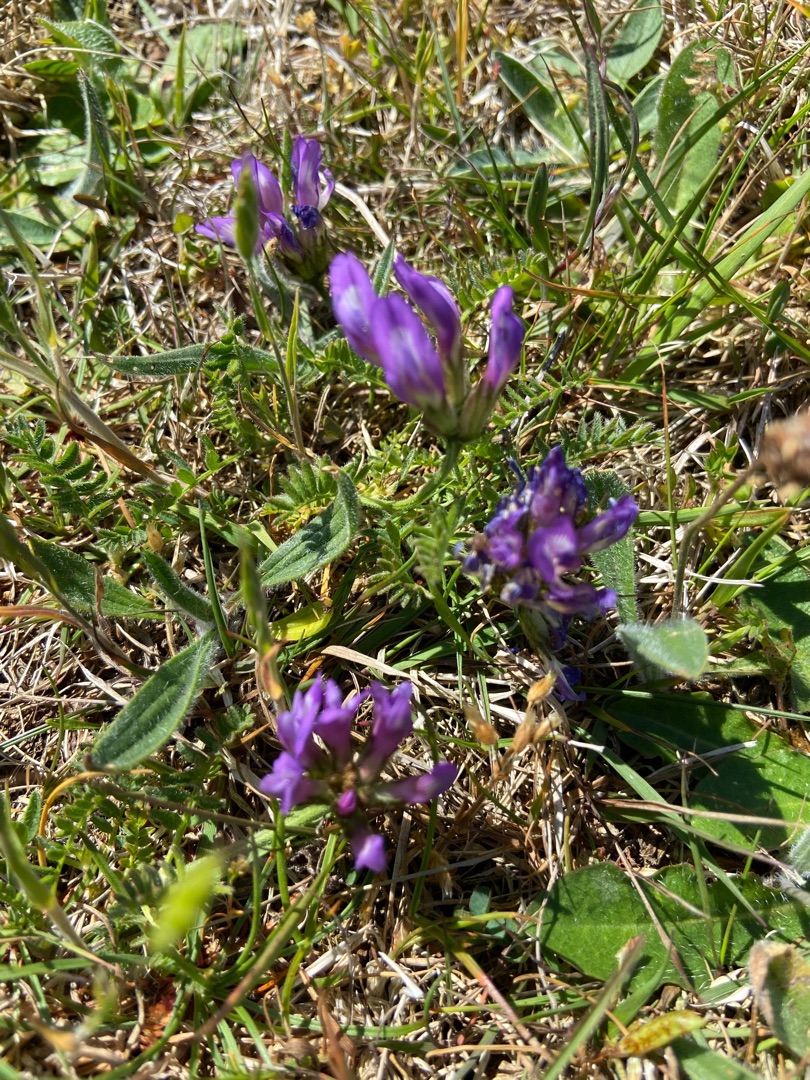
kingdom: Plantae
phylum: Tracheophyta
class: Magnoliopsida
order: Fabales
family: Fabaceae
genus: Astragalus
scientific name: Astragalus danicus
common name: Dansk astragel
